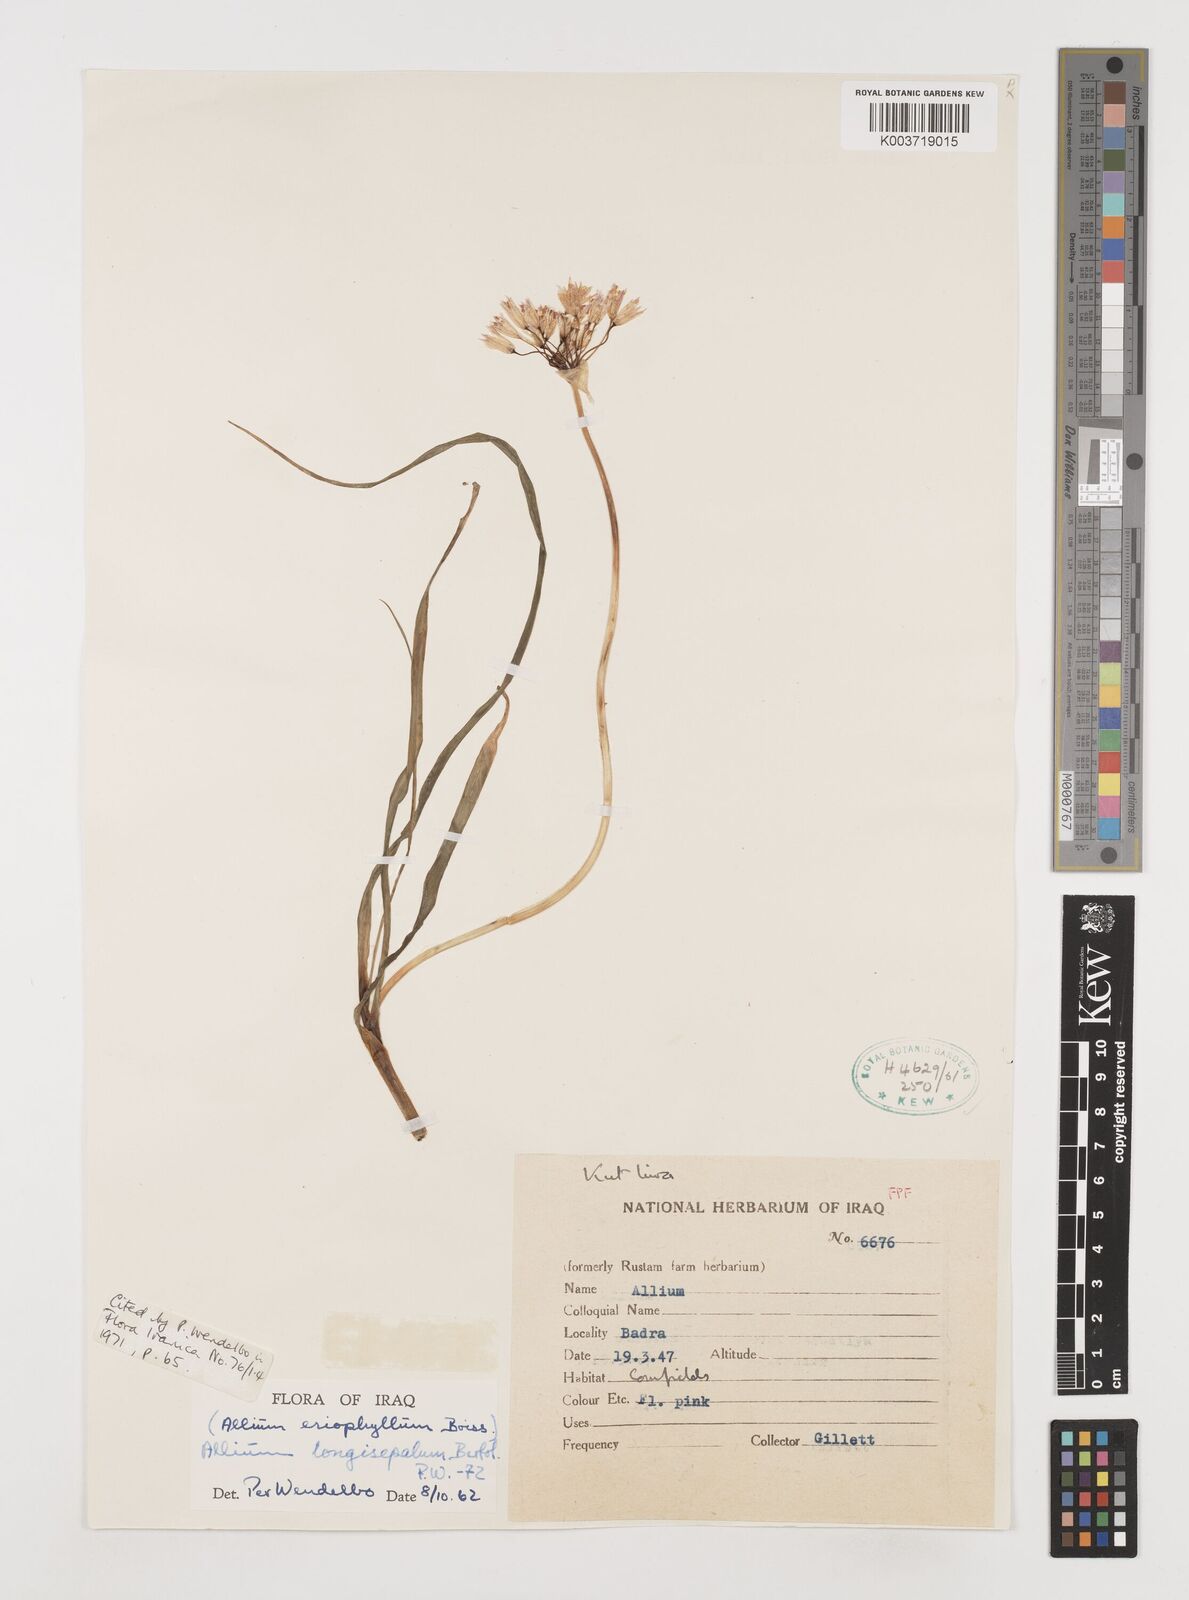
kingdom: Plantae
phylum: Tracheophyta
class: Liliopsida
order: Asparagales
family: Amaryllidaceae
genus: Allium
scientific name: Allium longisepalum
